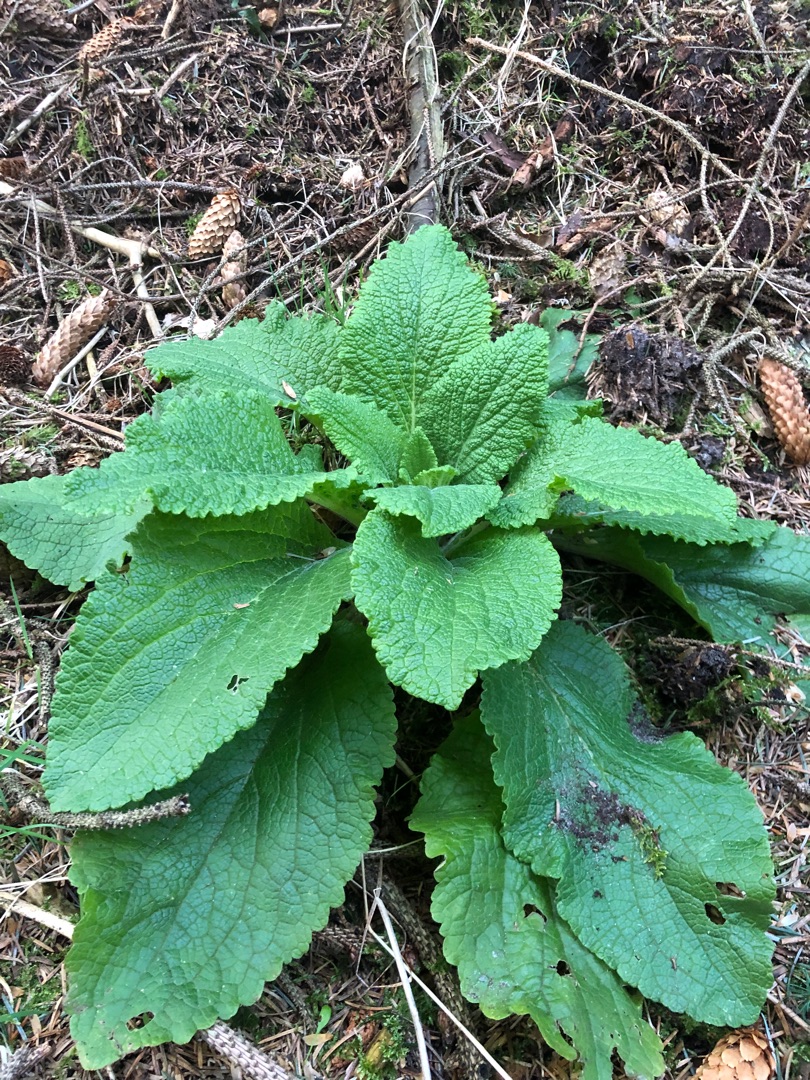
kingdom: Plantae
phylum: Tracheophyta
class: Magnoliopsida
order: Lamiales
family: Plantaginaceae
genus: Digitalis
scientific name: Digitalis purpurea
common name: Almindelig fingerbøl
